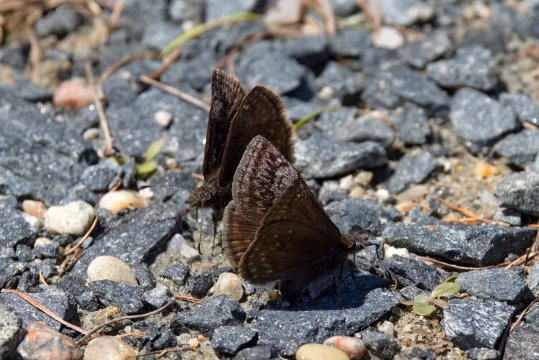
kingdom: Animalia
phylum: Arthropoda
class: Insecta
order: Lepidoptera
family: Hesperiidae
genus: Erynnis
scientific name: Erynnis icelus
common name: Dreamy Duskywing
